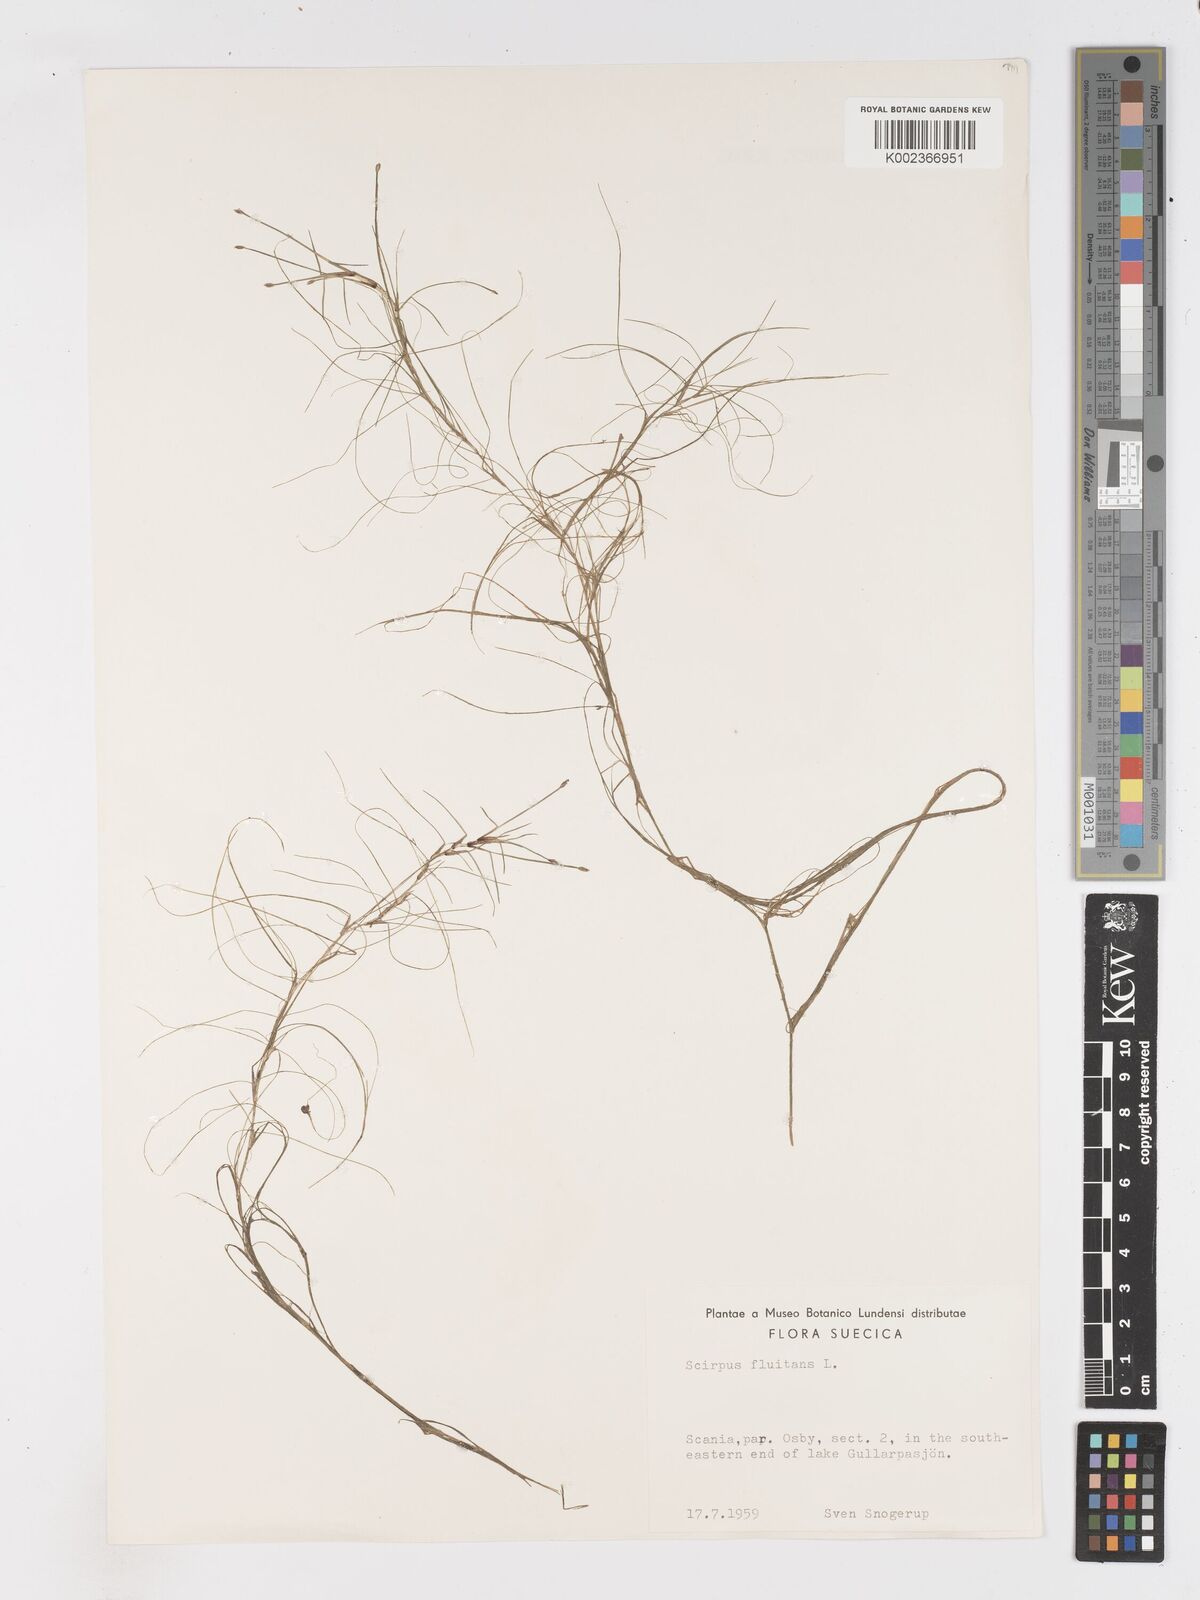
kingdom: Plantae
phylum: Tracheophyta
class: Liliopsida
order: Poales
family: Cyperaceae
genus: Isolepis
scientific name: Isolepis fluitans
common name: Floating club-rush
